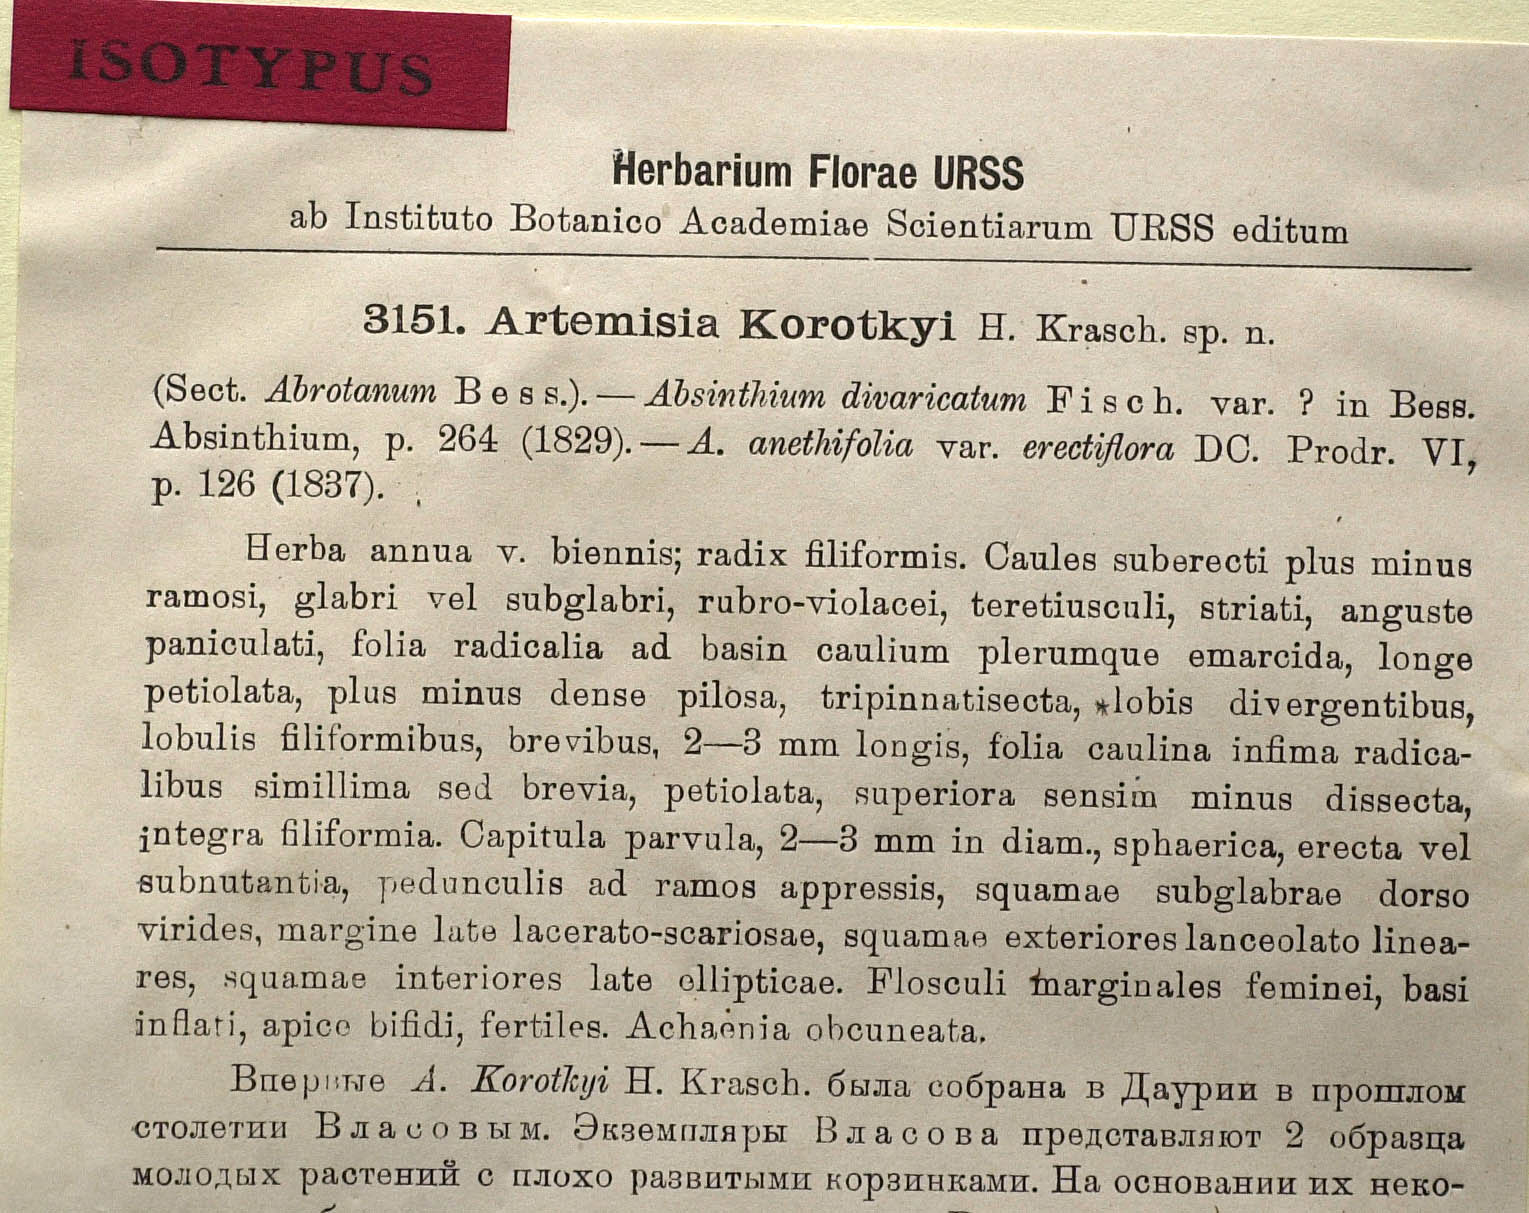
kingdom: Plantae
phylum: Tracheophyta
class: Magnoliopsida
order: Asterales
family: Asteraceae
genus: Artemisia
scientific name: Artemisia anethoides
